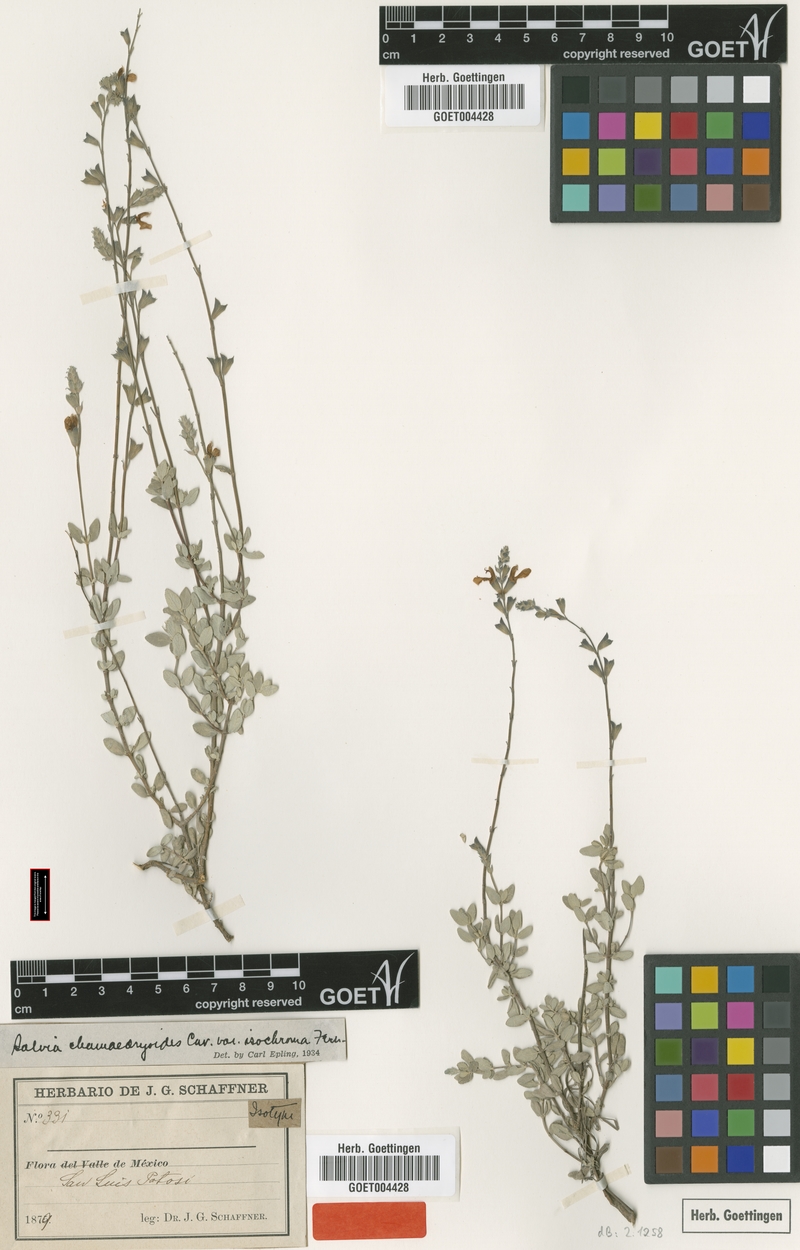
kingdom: Plantae
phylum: Tracheophyta
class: Magnoliopsida
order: Lamiales
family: Lamiaceae
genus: Salvia
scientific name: Salvia chamaedryoides
